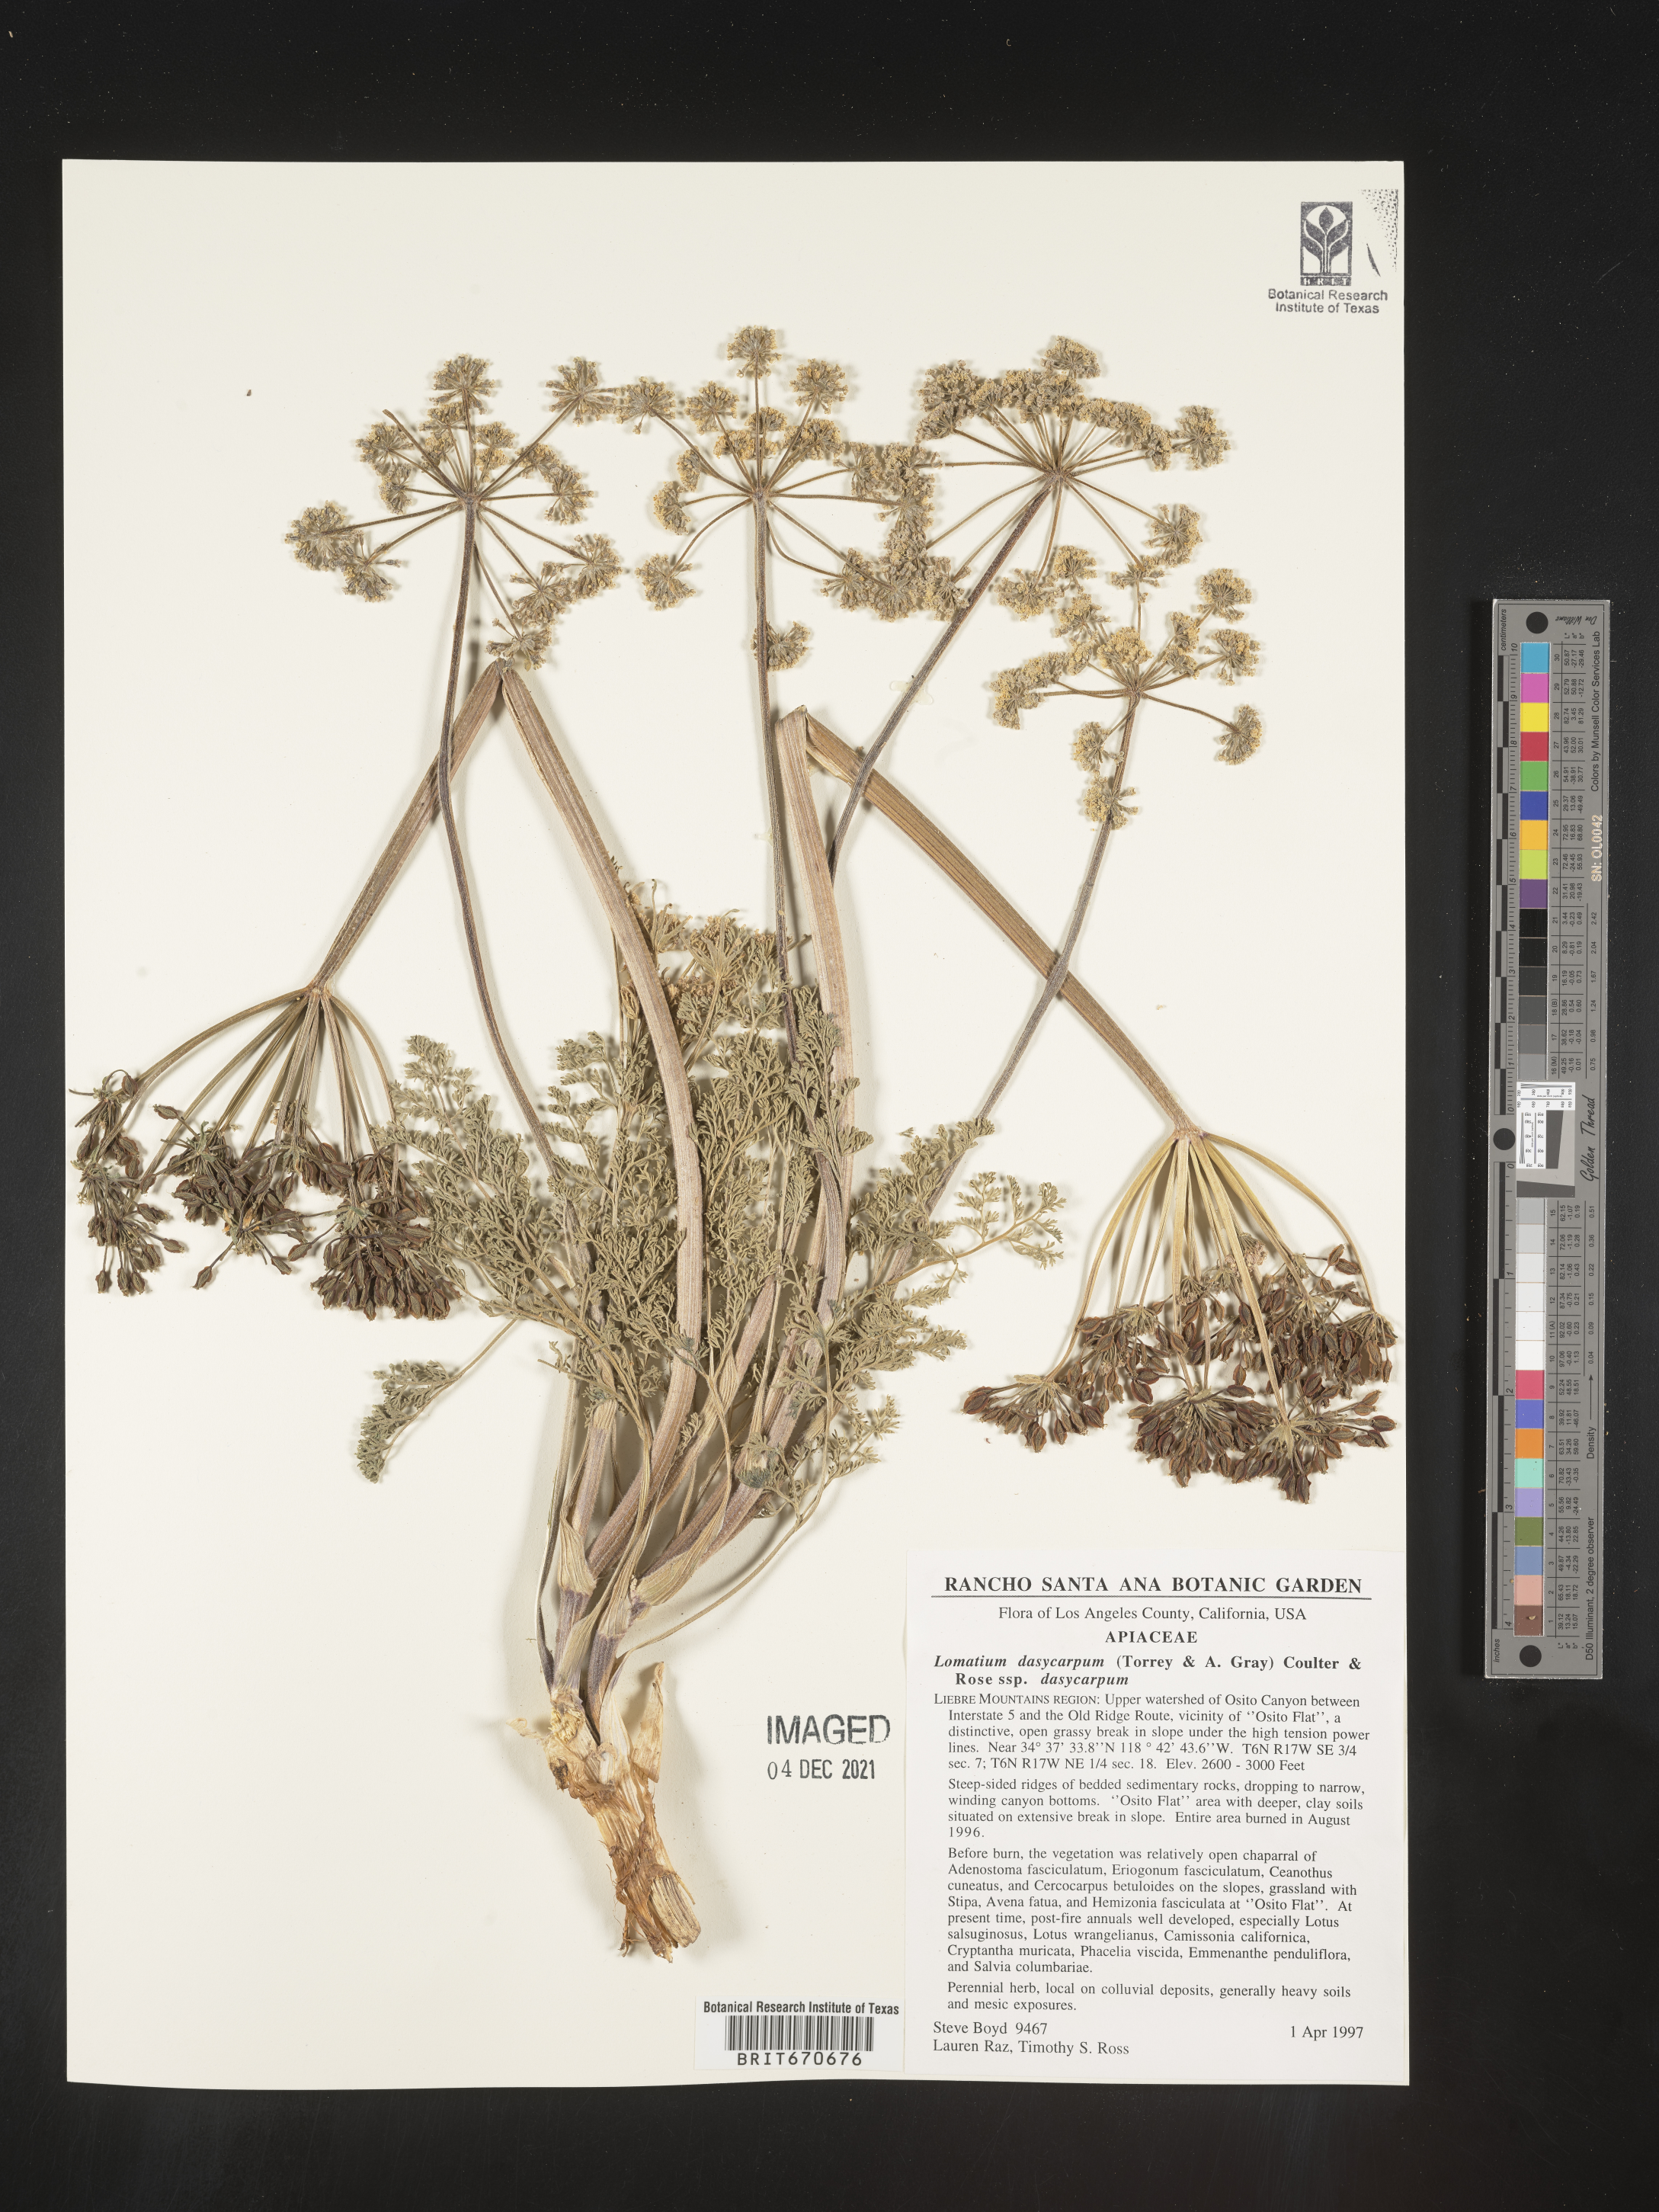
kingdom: Plantae
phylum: Tracheophyta
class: Magnoliopsida
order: Apiales
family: Apiaceae
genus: Lomatium
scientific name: Lomatium dasycarpum
